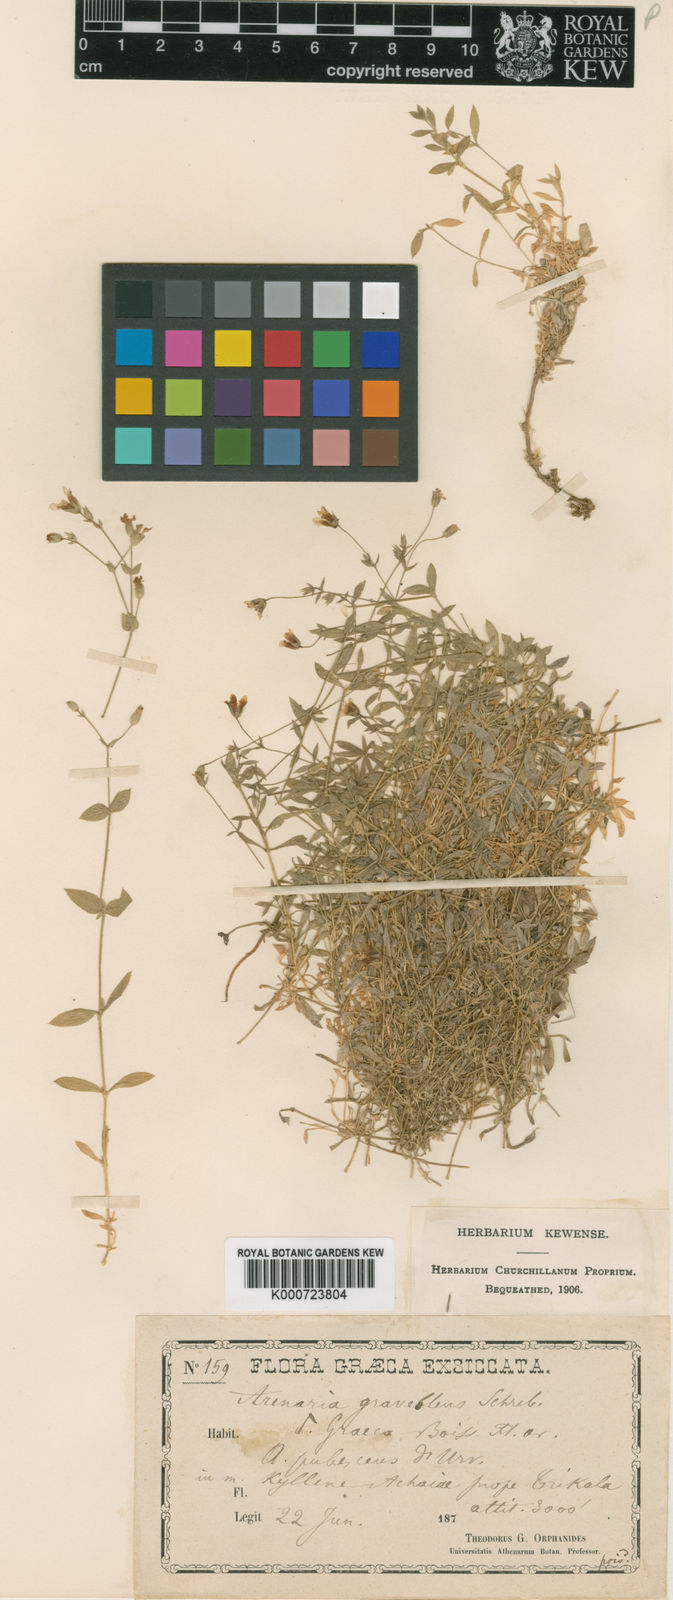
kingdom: Plantae
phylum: Tracheophyta
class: Magnoliopsida
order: Caryophyllales
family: Caryophyllaceae
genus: Arenaria
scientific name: Arenaria
